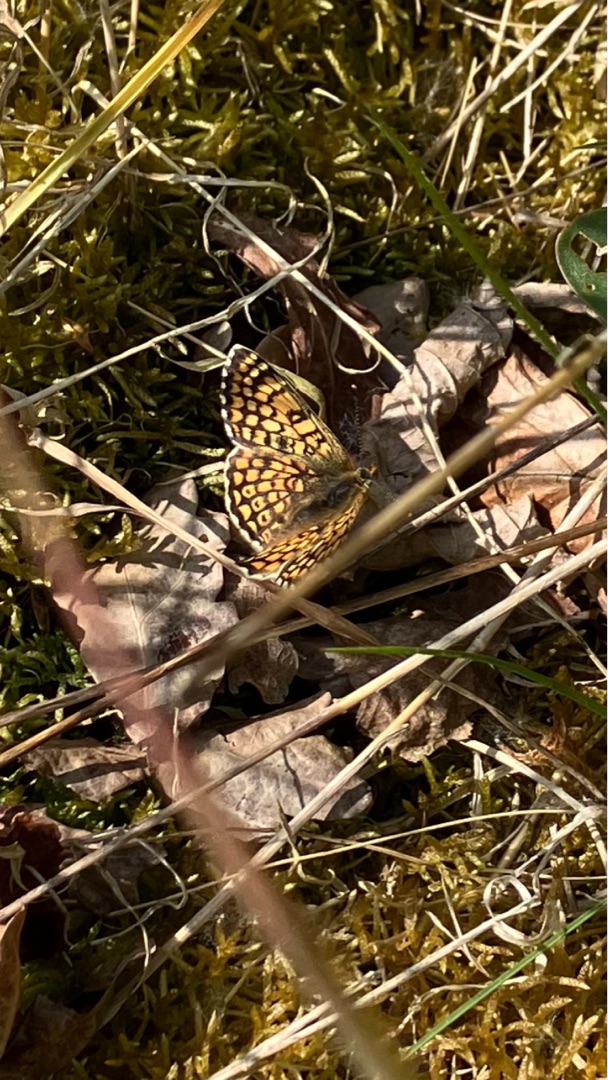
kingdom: Animalia
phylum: Arthropoda
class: Insecta
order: Lepidoptera
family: Nymphalidae
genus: Melitaea
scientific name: Melitaea cinxia
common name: Okkergul pletvinge
